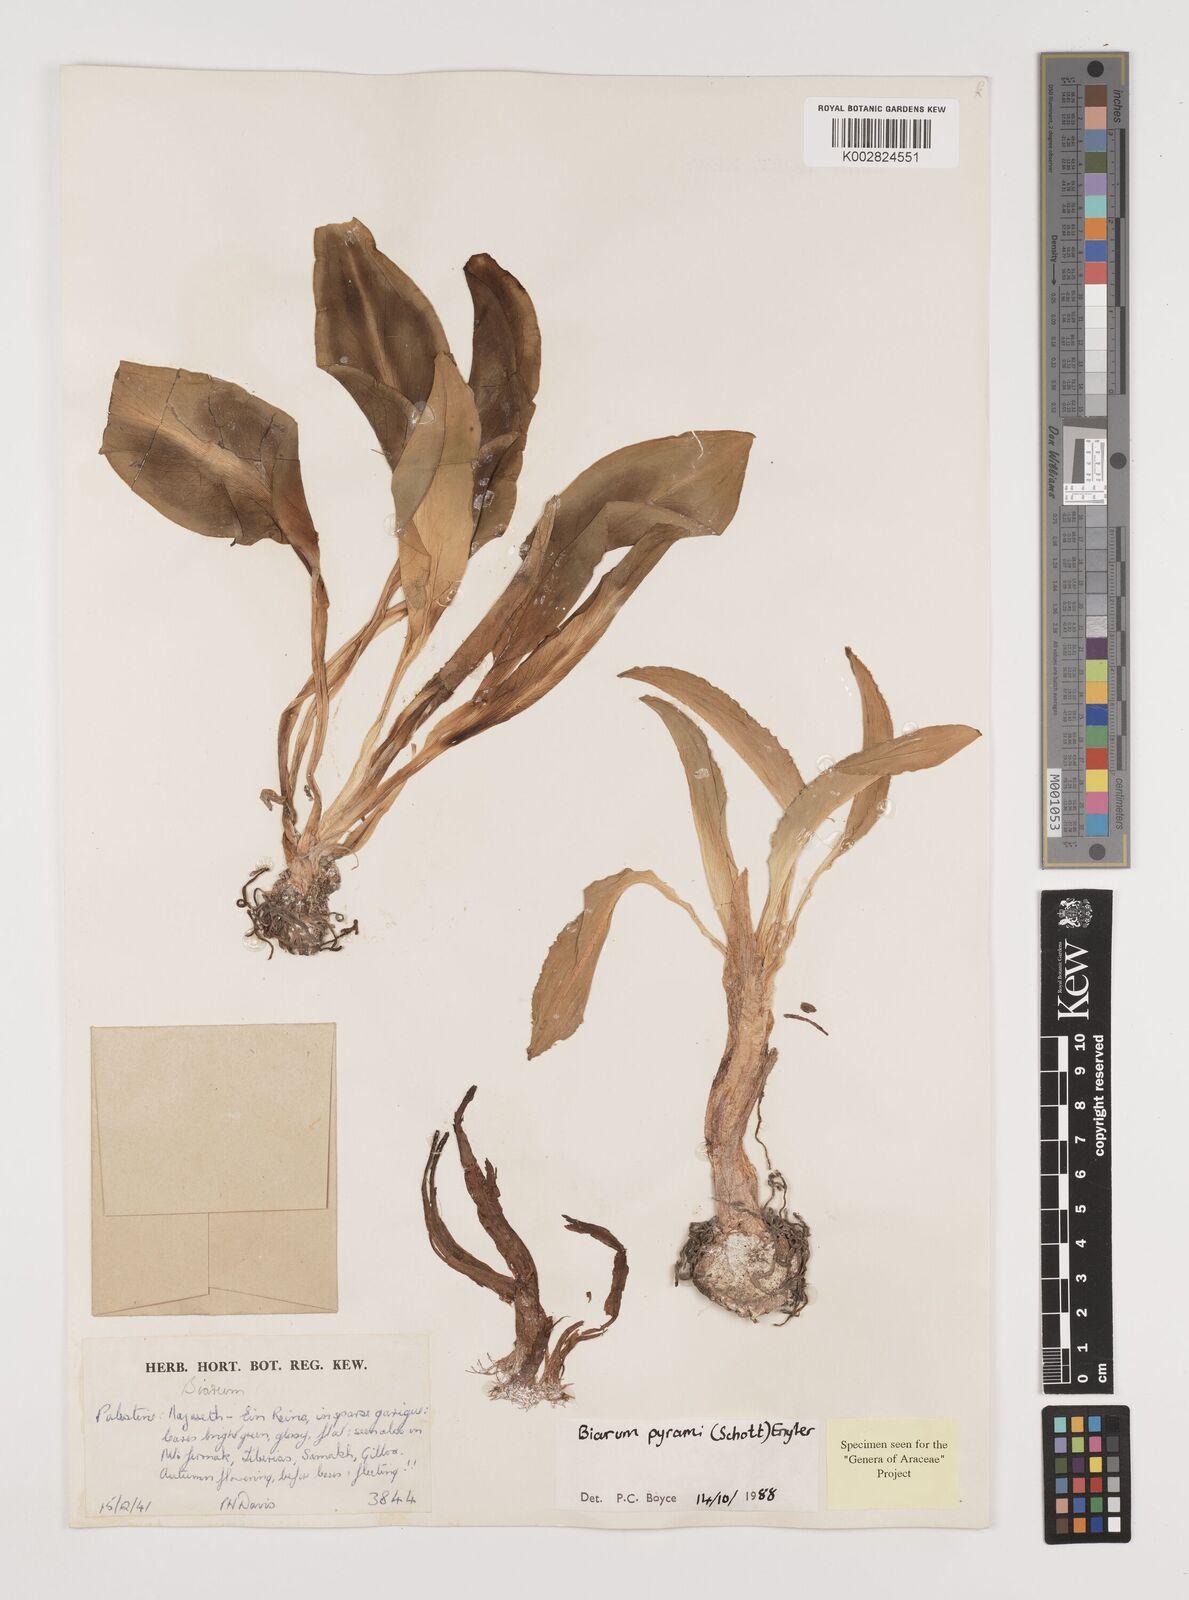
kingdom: Plantae
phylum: Tracheophyta
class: Liliopsida
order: Alismatales
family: Araceae
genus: Biarum
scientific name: Biarum pyrami
